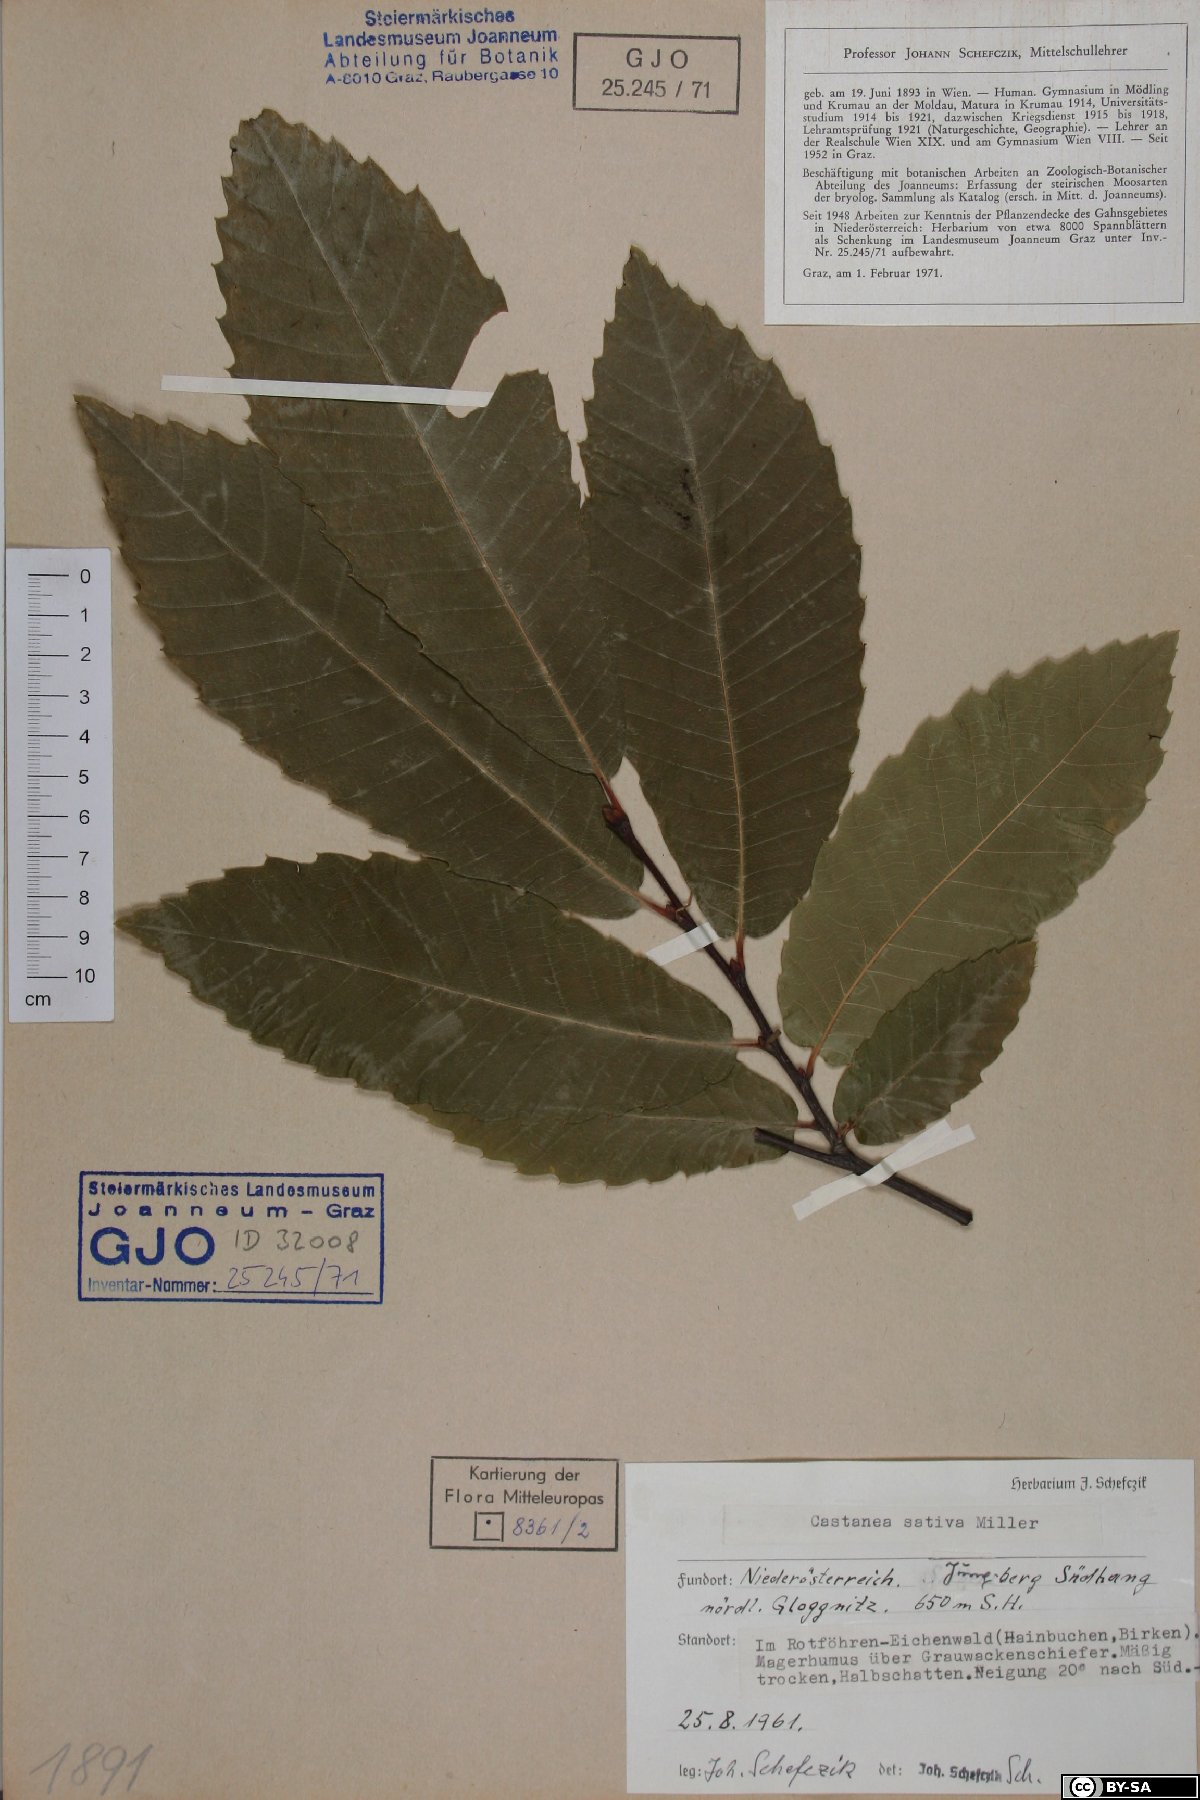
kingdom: Plantae
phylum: Tracheophyta
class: Magnoliopsida
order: Fagales
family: Fagaceae
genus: Castanea
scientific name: Castanea sativa
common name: Sweet chestnut
